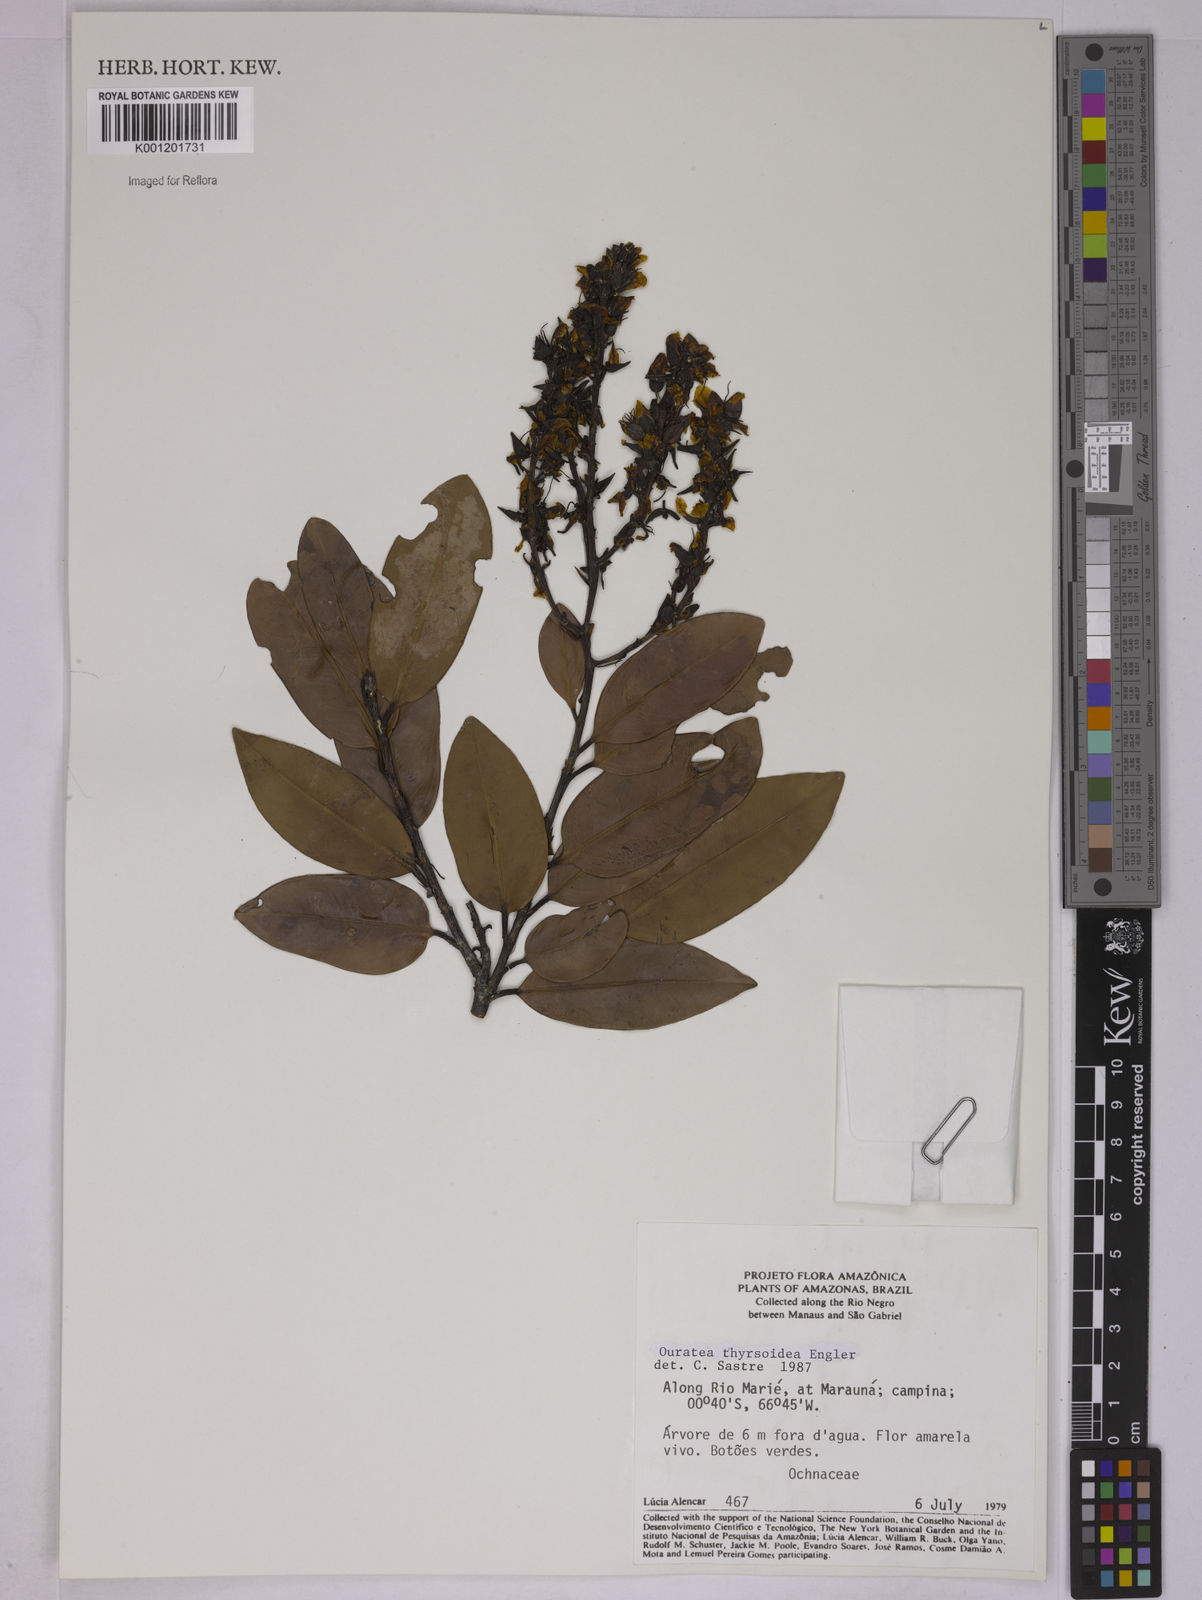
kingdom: Plantae
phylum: Tracheophyta
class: Magnoliopsida
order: Malpighiales
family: Ochnaceae
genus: Ouratea
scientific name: Ouratea thyrsoidea
